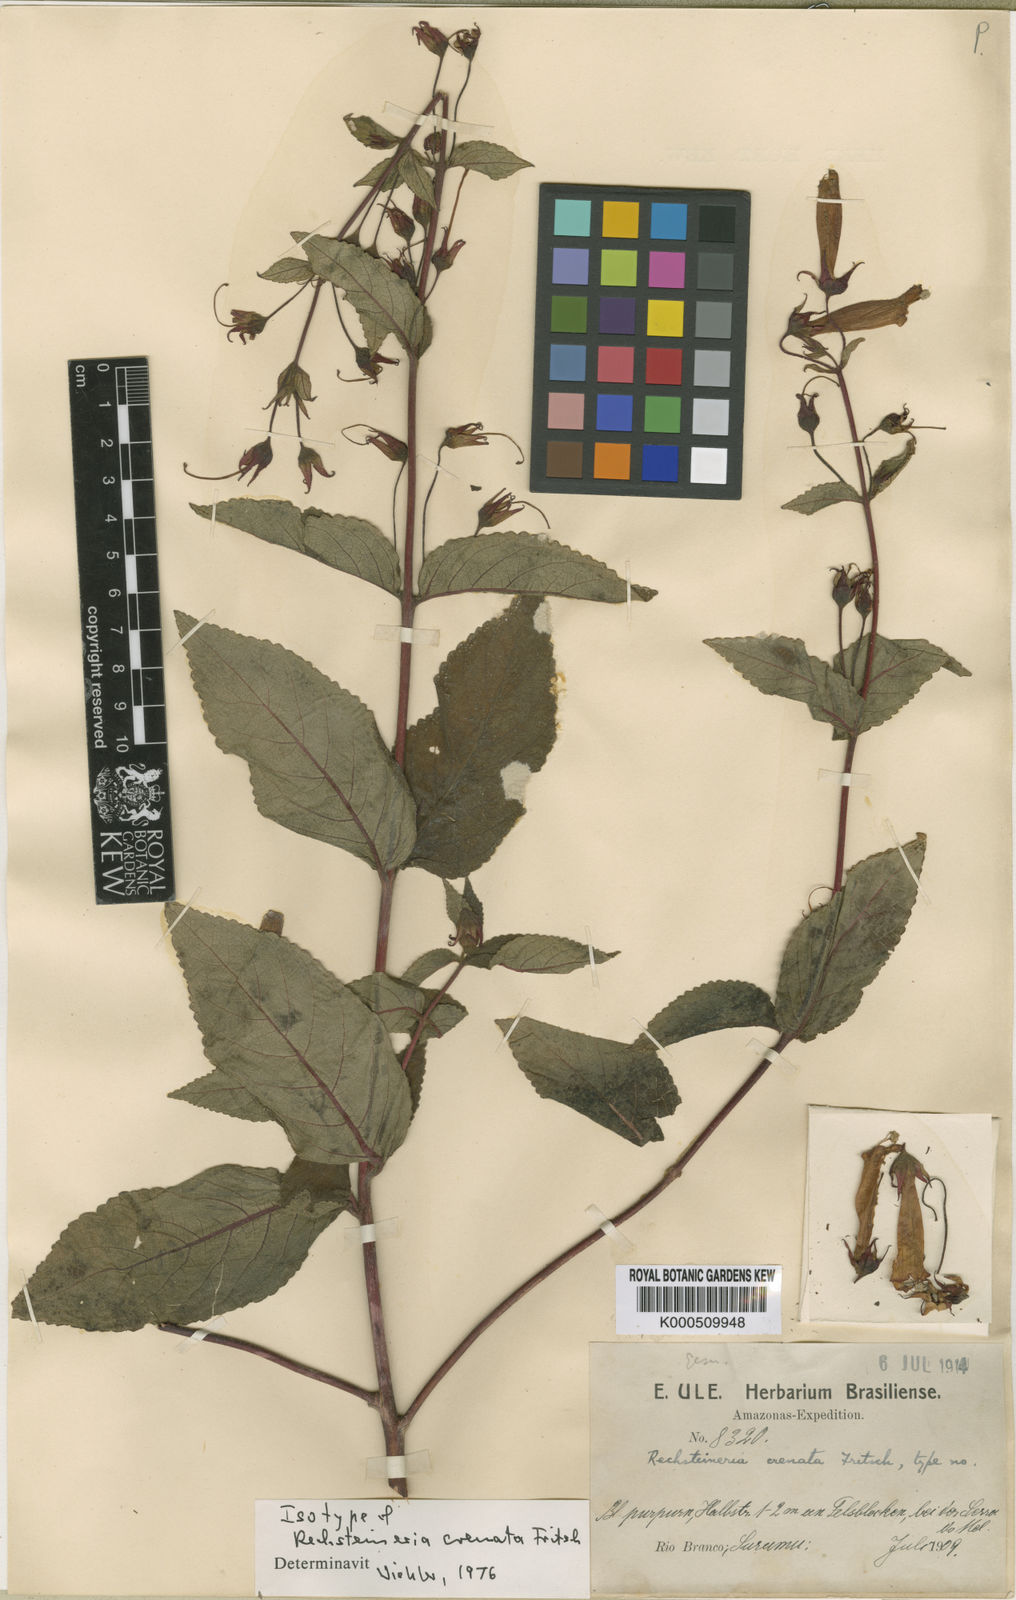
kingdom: Plantae
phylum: Tracheophyta
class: Magnoliopsida
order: Lamiales
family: Gesneriaceae
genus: Sinningia
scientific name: Sinningia schomburgkiana
